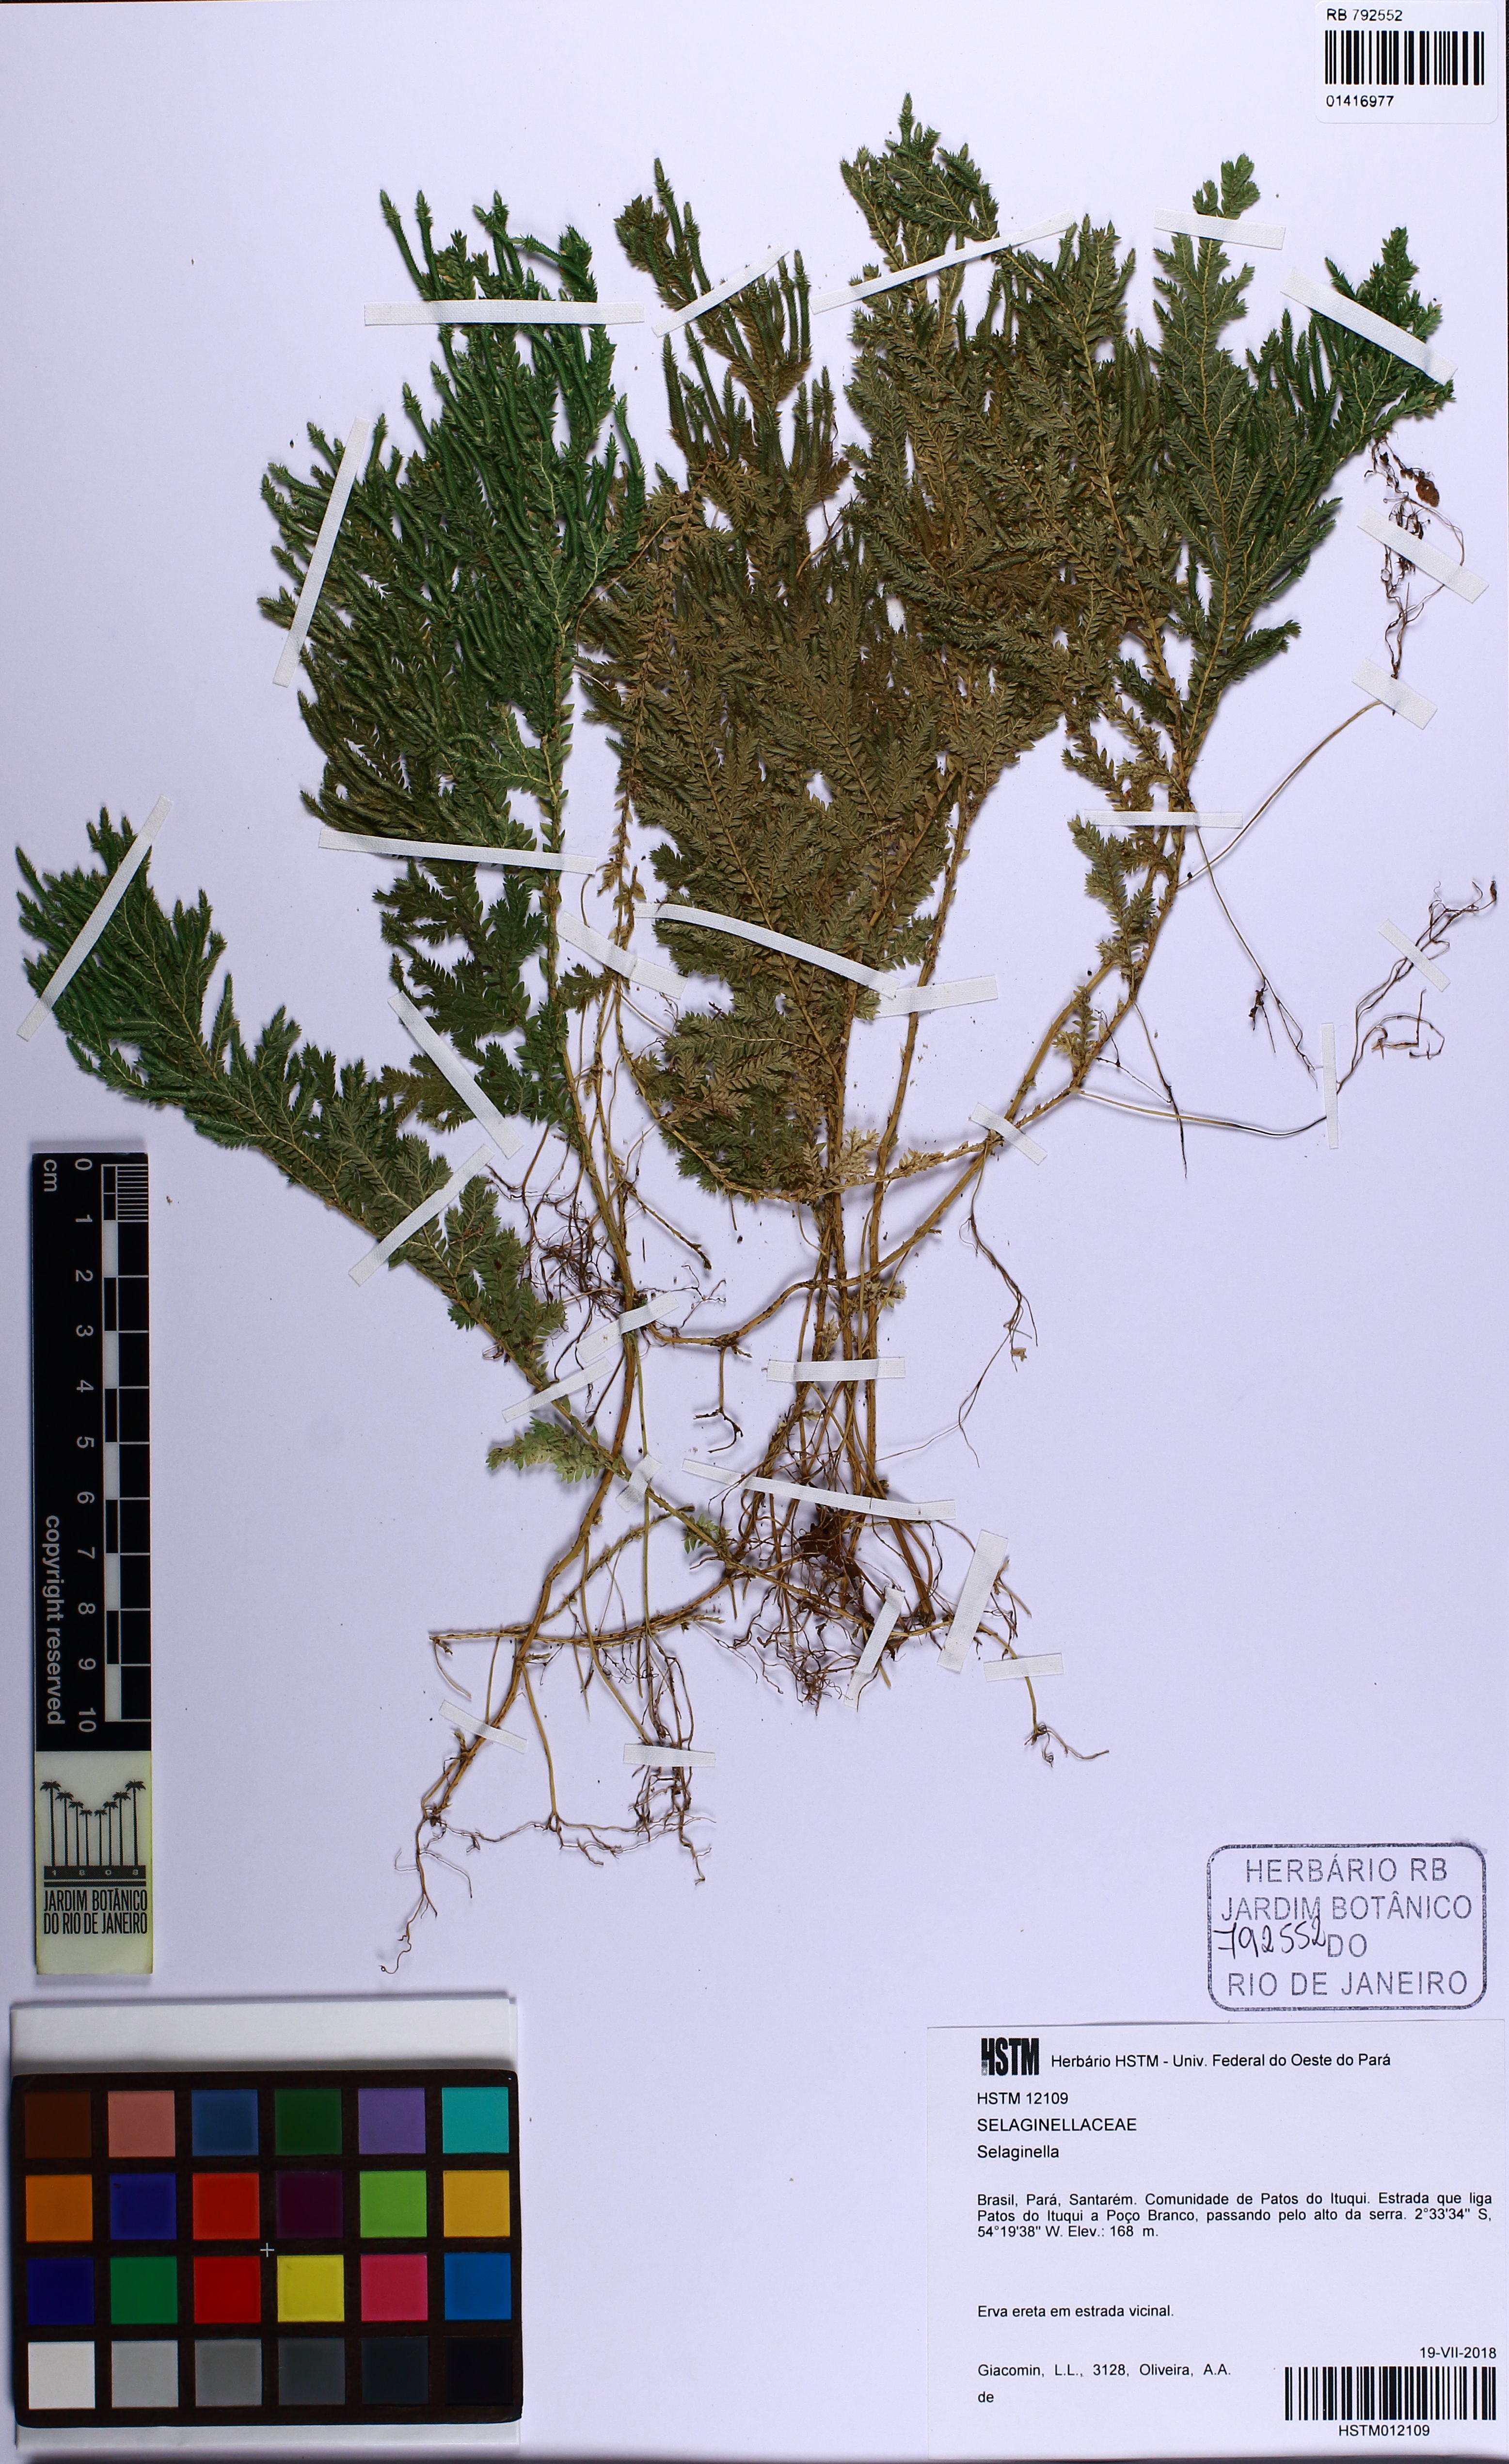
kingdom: Plantae
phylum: Tracheophyta
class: Lycopodiopsida
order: Selaginellales
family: Selaginellaceae
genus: Selaginella
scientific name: Selaginella
